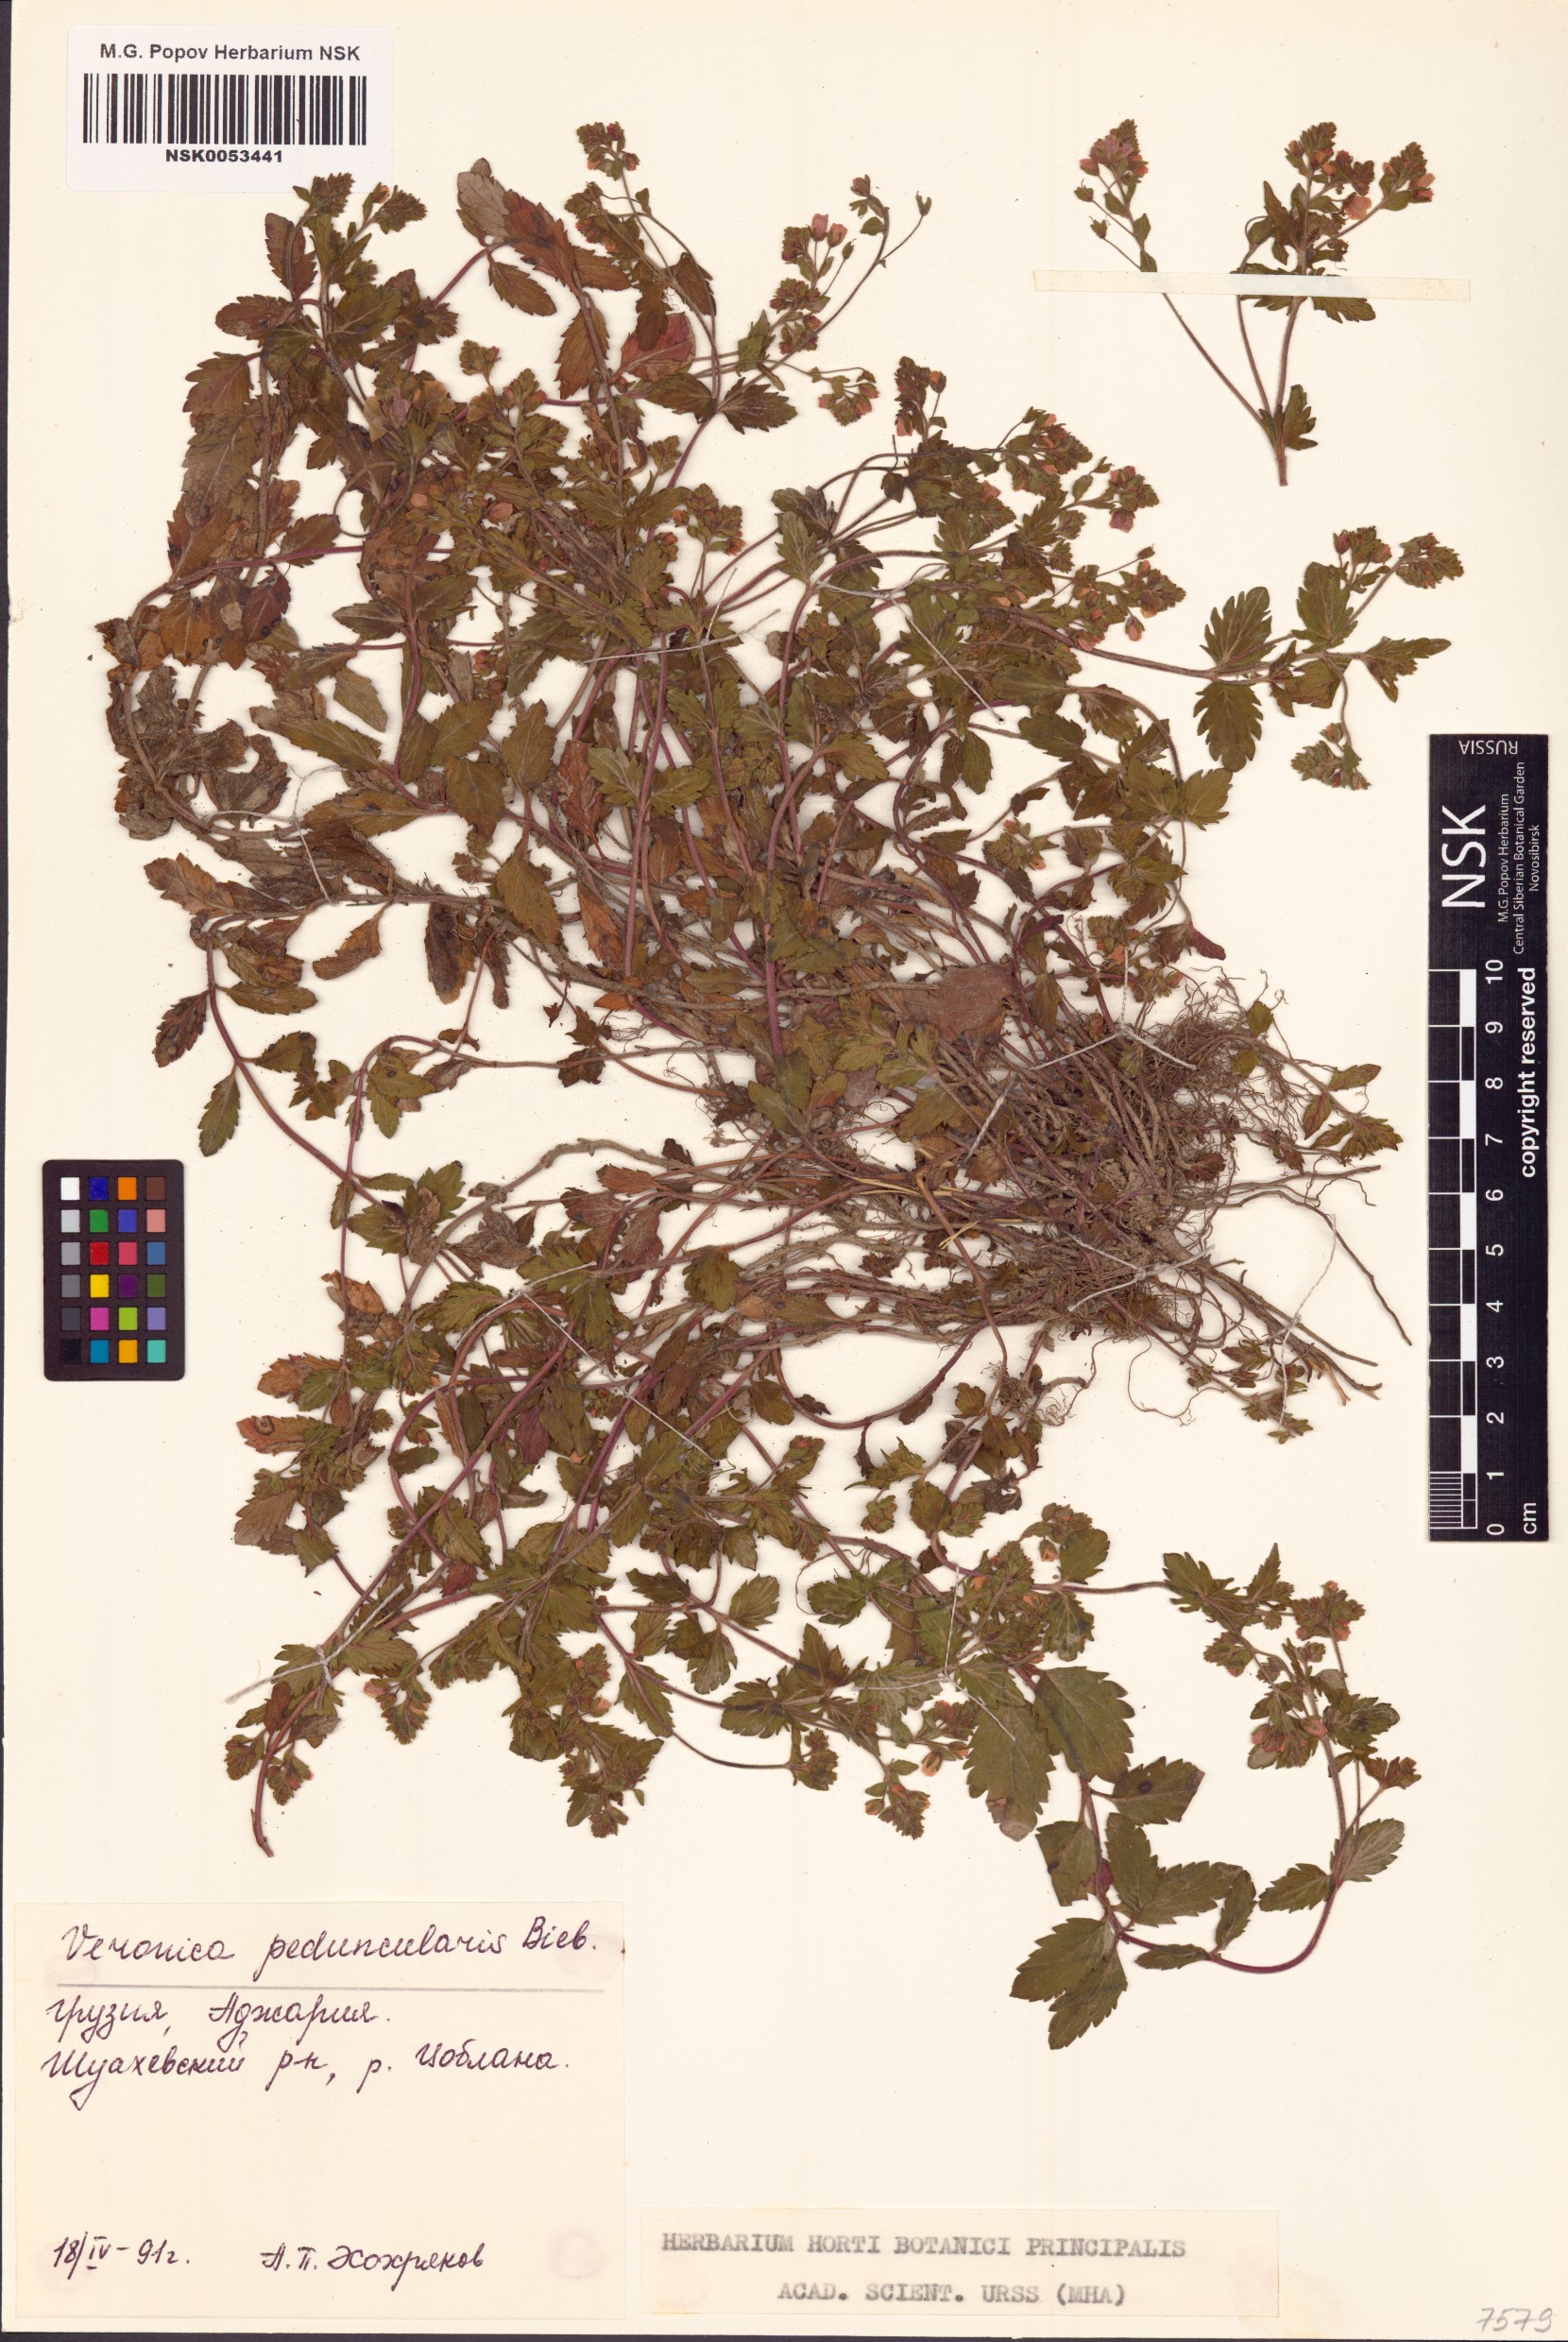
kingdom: Plantae
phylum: Tracheophyta
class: Magnoliopsida
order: Lamiales
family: Plantaginaceae
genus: Veronica
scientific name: Veronica peduncularis
